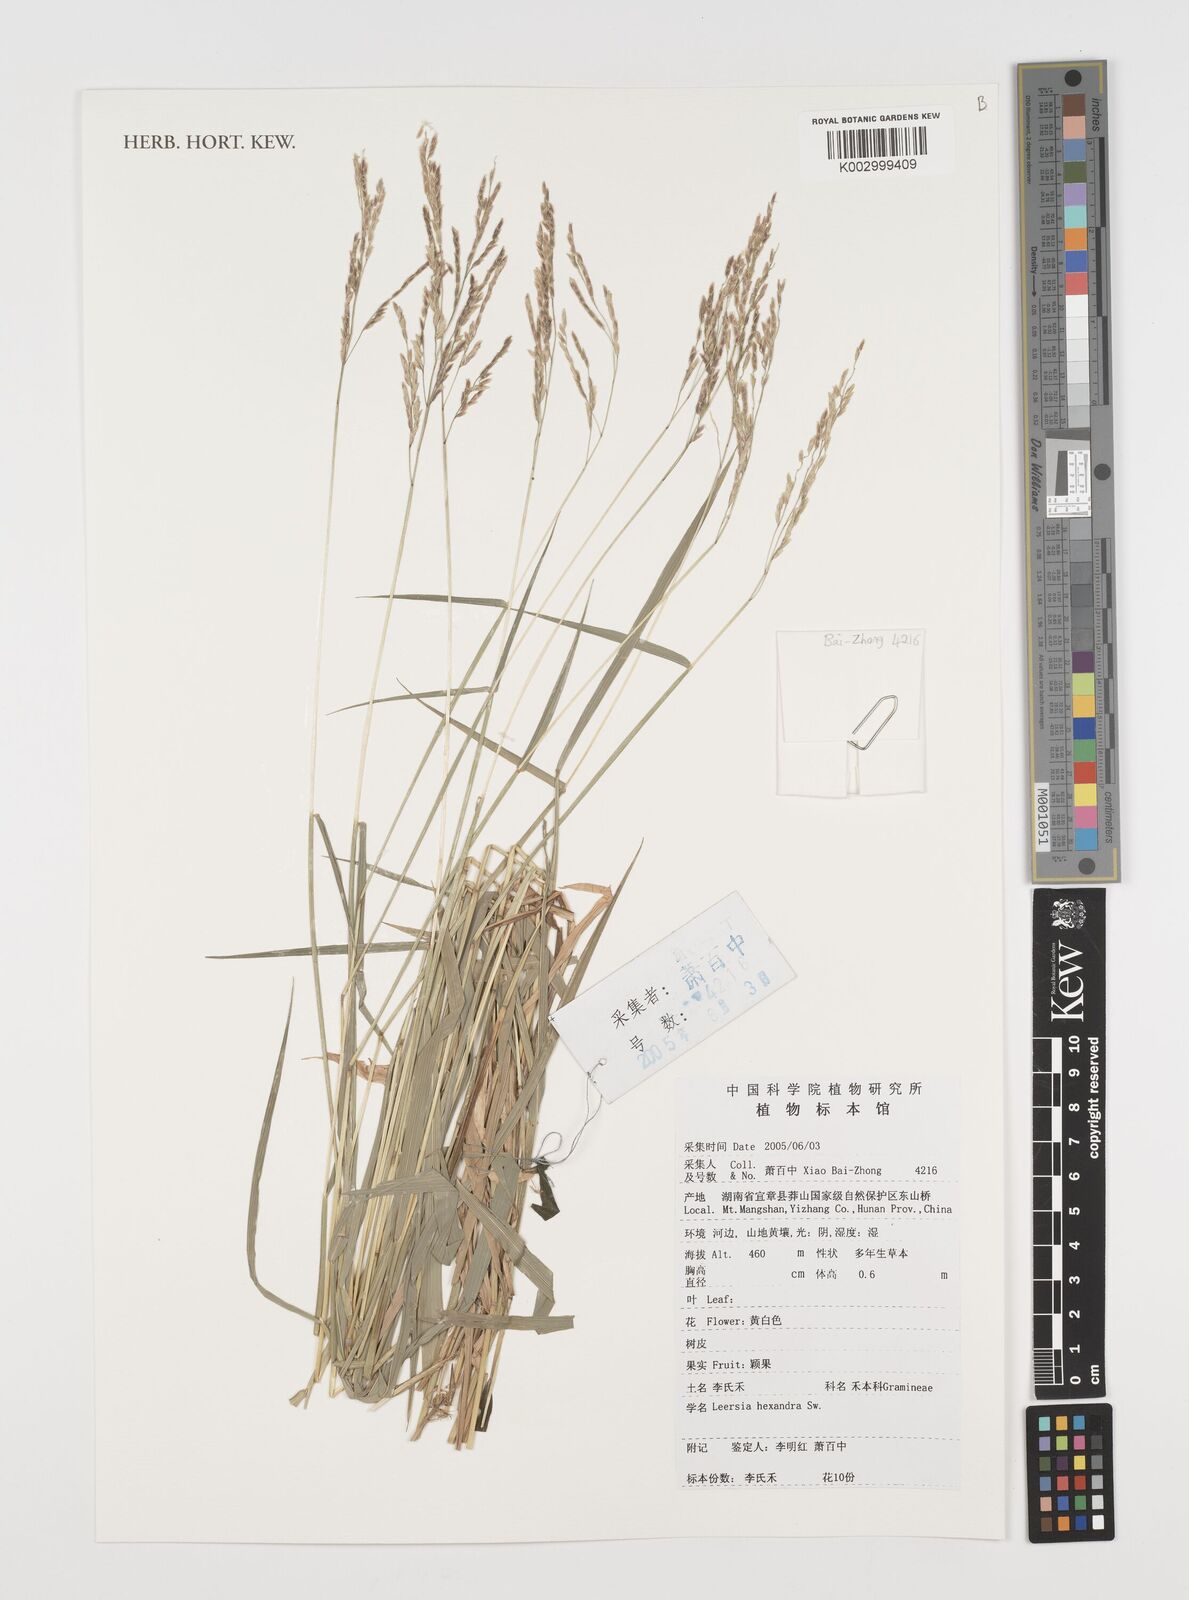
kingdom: Plantae
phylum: Tracheophyta
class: Liliopsida
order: Poales
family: Poaceae
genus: Leersia
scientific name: Leersia hexandra
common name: Southern cut grass
